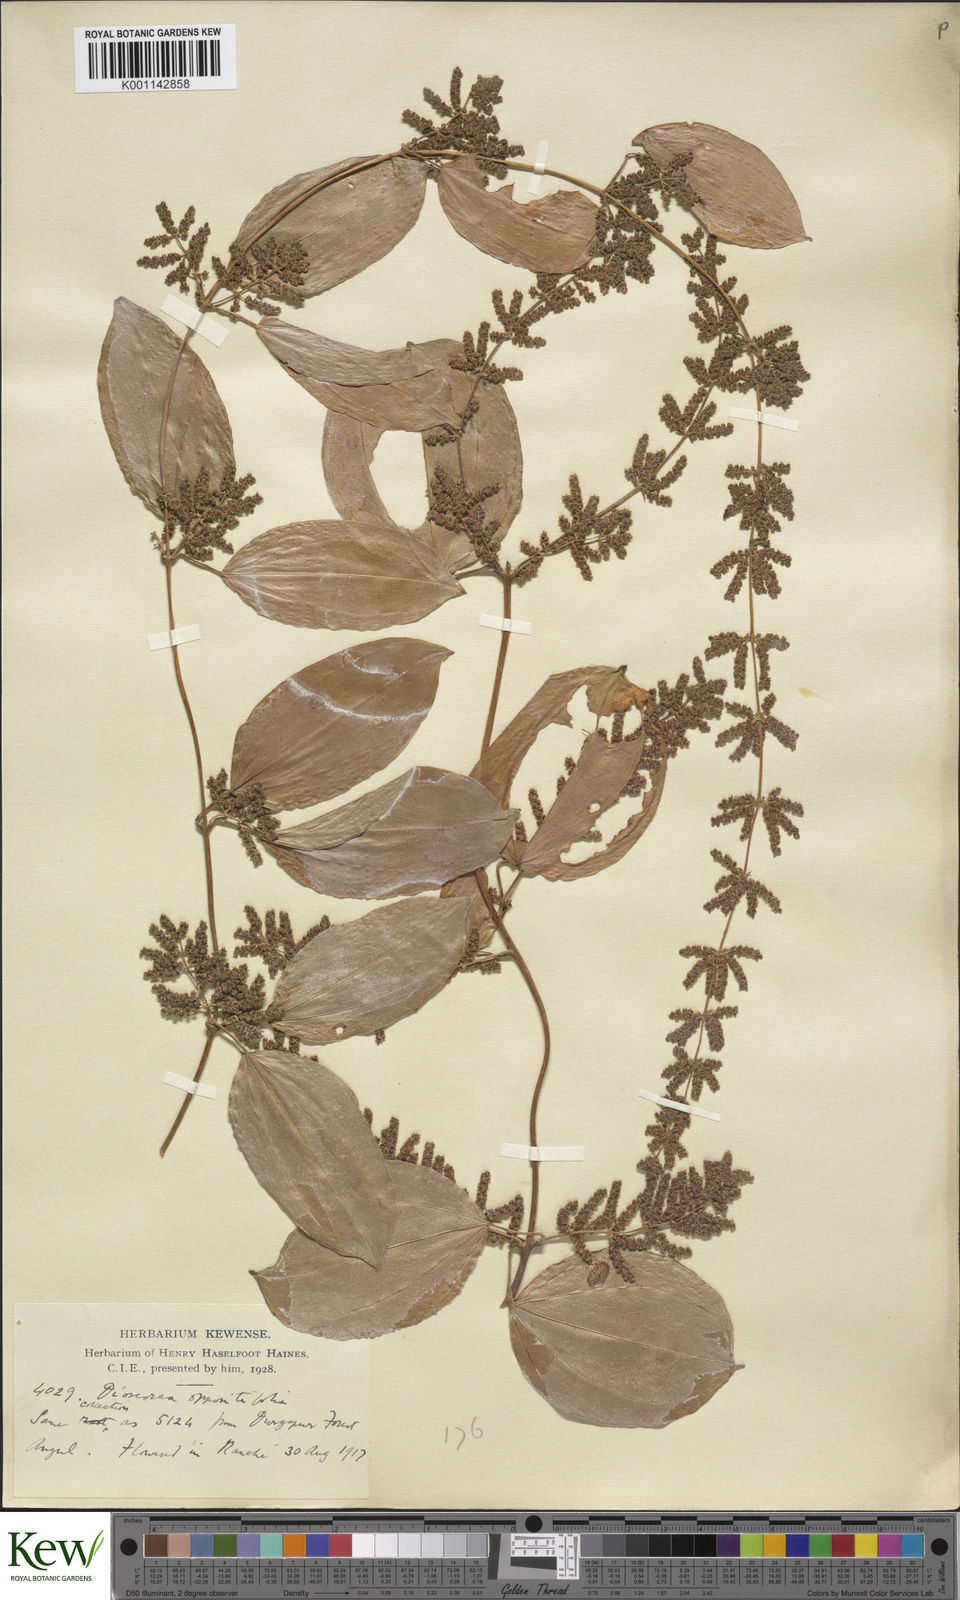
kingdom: Plantae
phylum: Tracheophyta
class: Liliopsida
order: Dioscoreales
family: Dioscoreaceae
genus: Dioscorea
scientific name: Dioscorea oppositifolia
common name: Chinese yam
